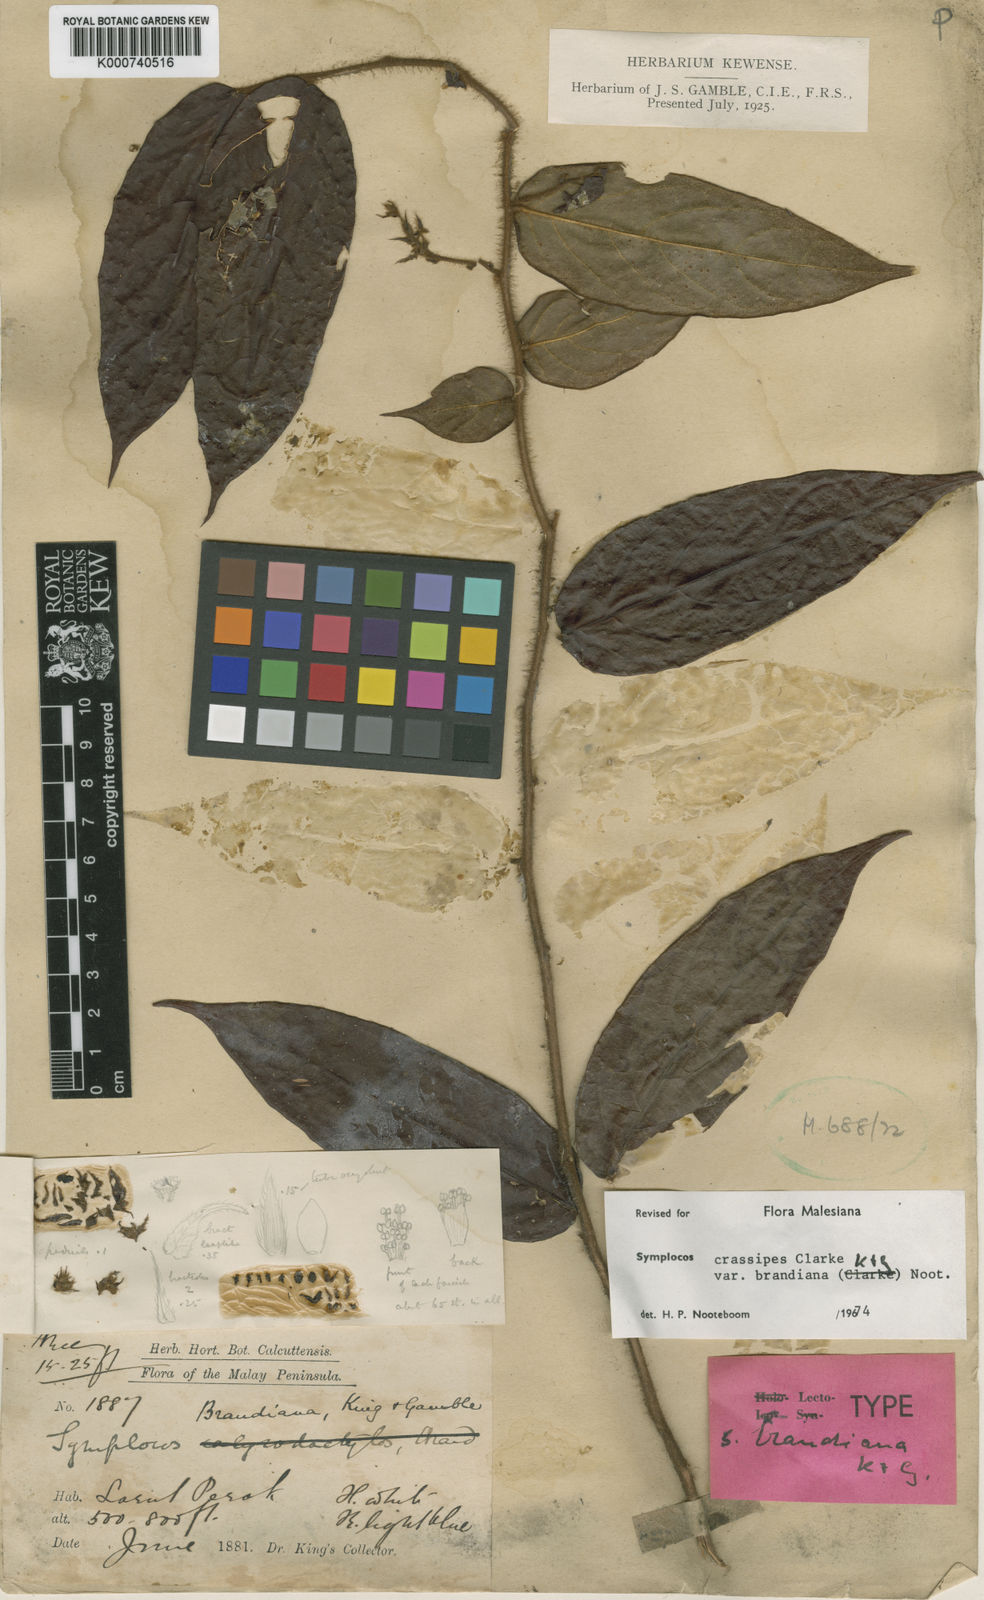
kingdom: Plantae
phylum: Tracheophyta
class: Magnoliopsida
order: Ericales
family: Symplocaceae
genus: Symplocos
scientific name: Symplocos crassipes
